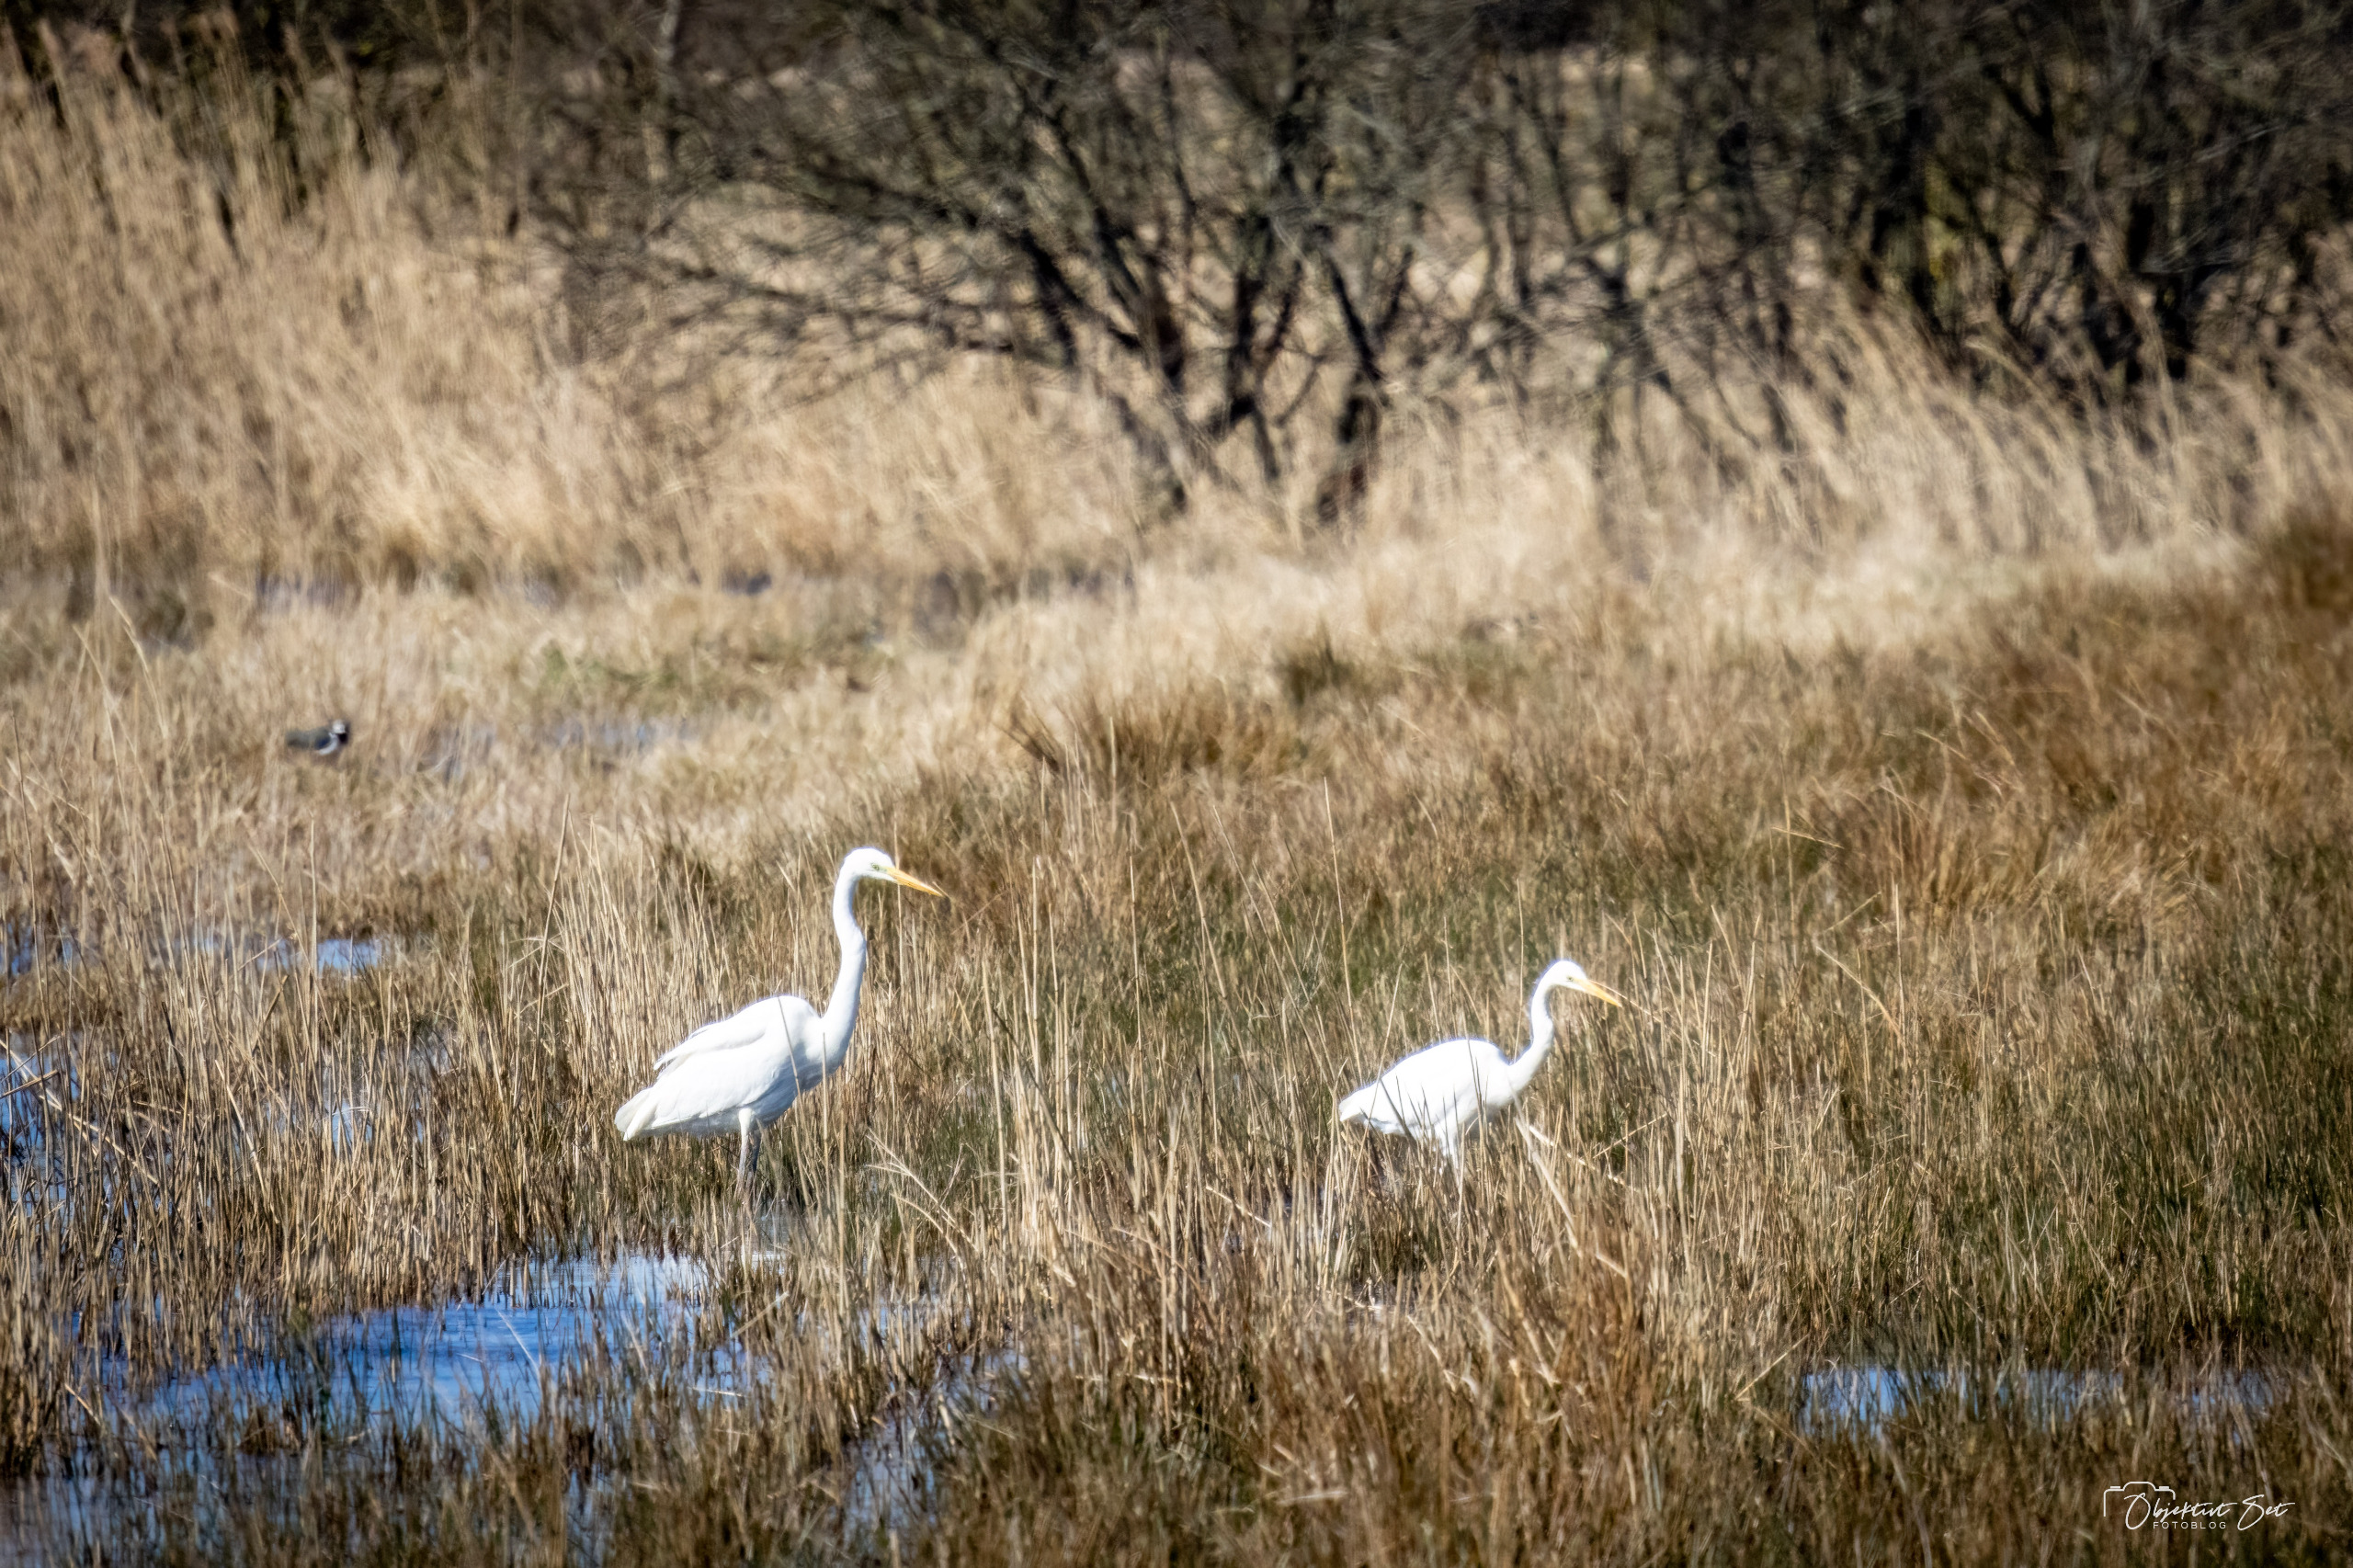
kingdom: Animalia
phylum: Chordata
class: Aves
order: Pelecaniformes
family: Ardeidae
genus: Ardea
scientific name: Ardea alba
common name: Sølvhejre
